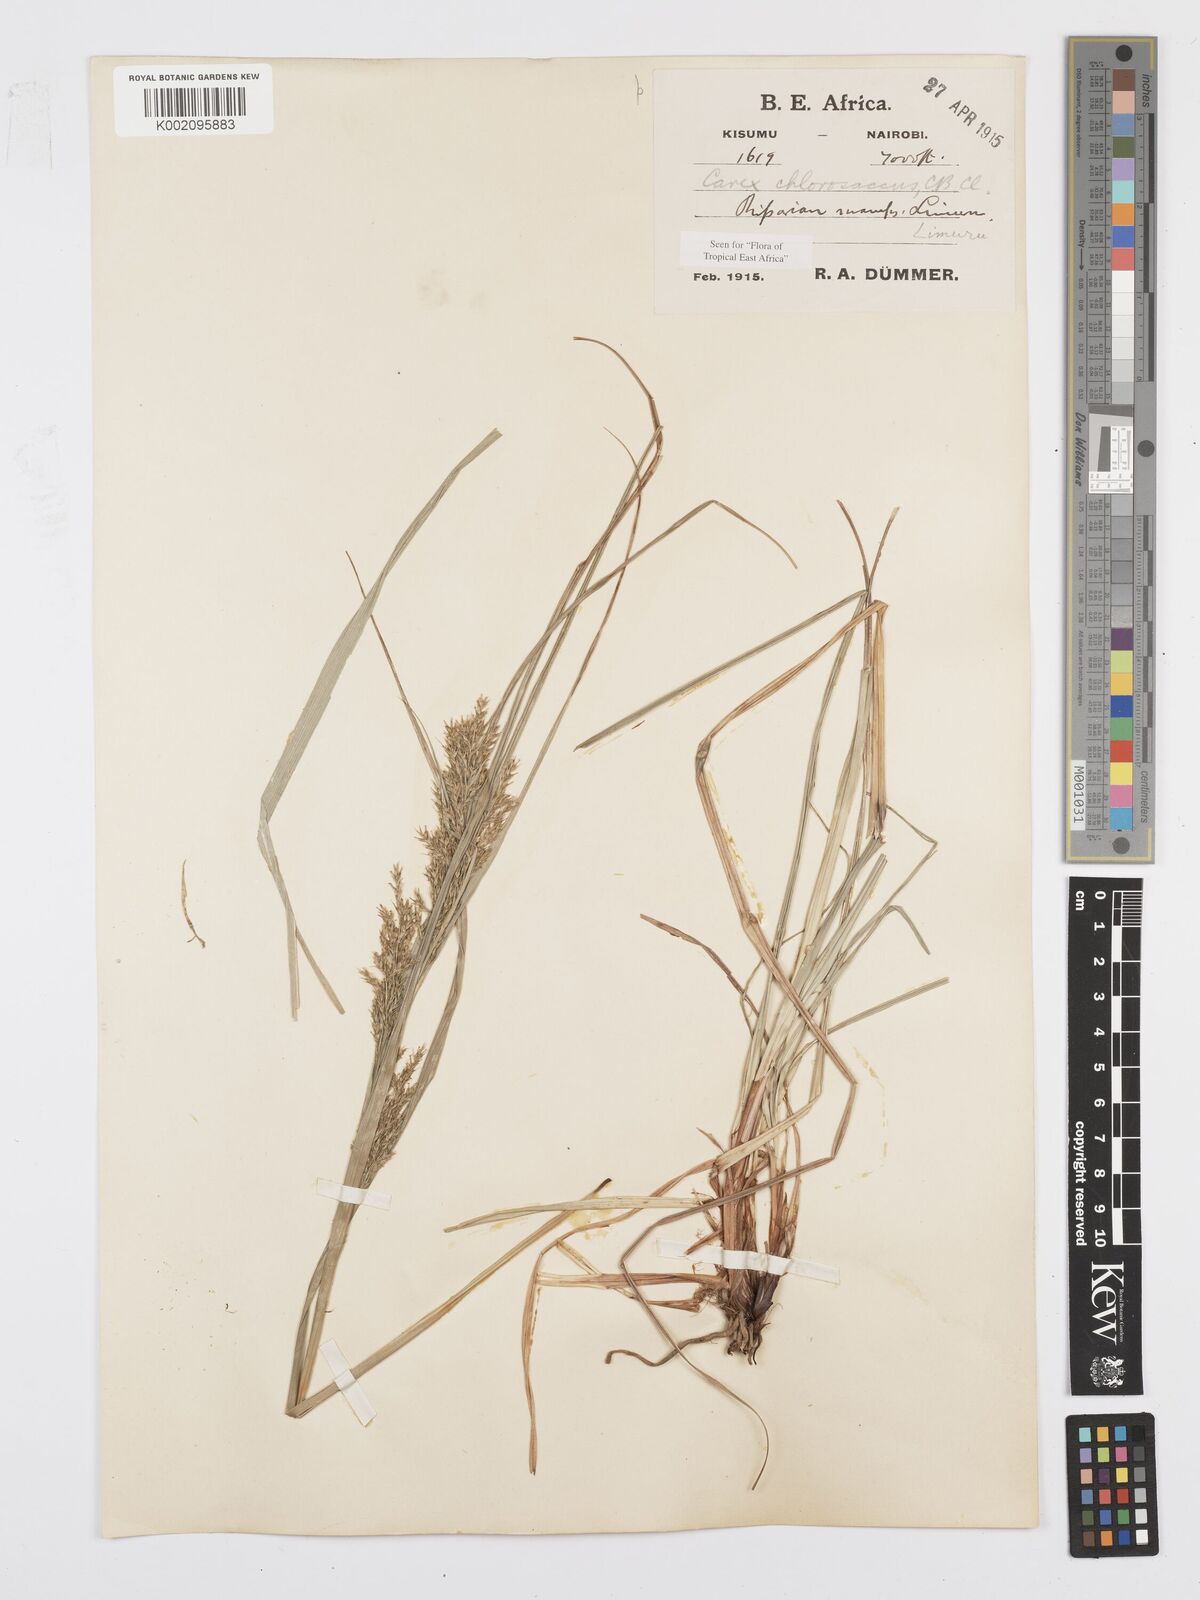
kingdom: Plantae
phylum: Tracheophyta
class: Liliopsida
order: Poales
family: Cyperaceae
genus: Carex
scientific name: Carex chlorosaccus
